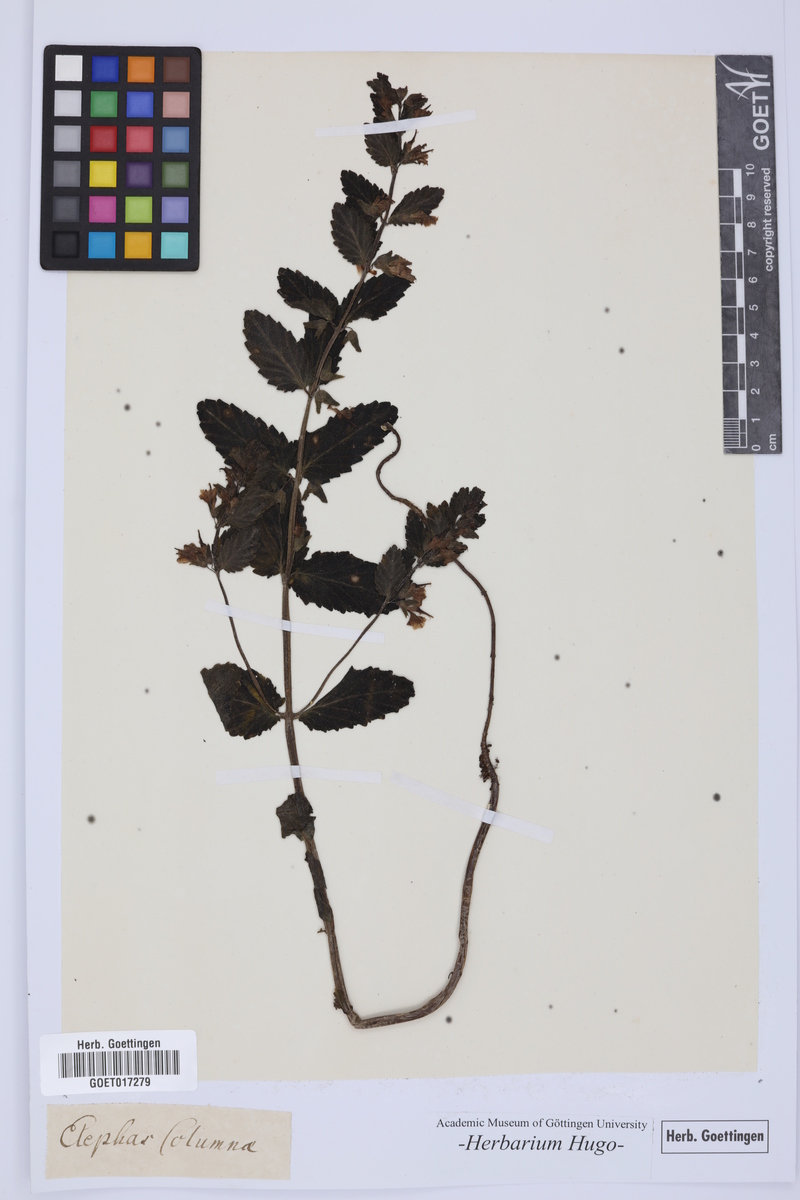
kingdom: Plantae
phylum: Tracheophyta
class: Magnoliopsida
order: Lamiales
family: Orobanchaceae
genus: Rhynchocorys
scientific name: Rhynchocorys elephas
